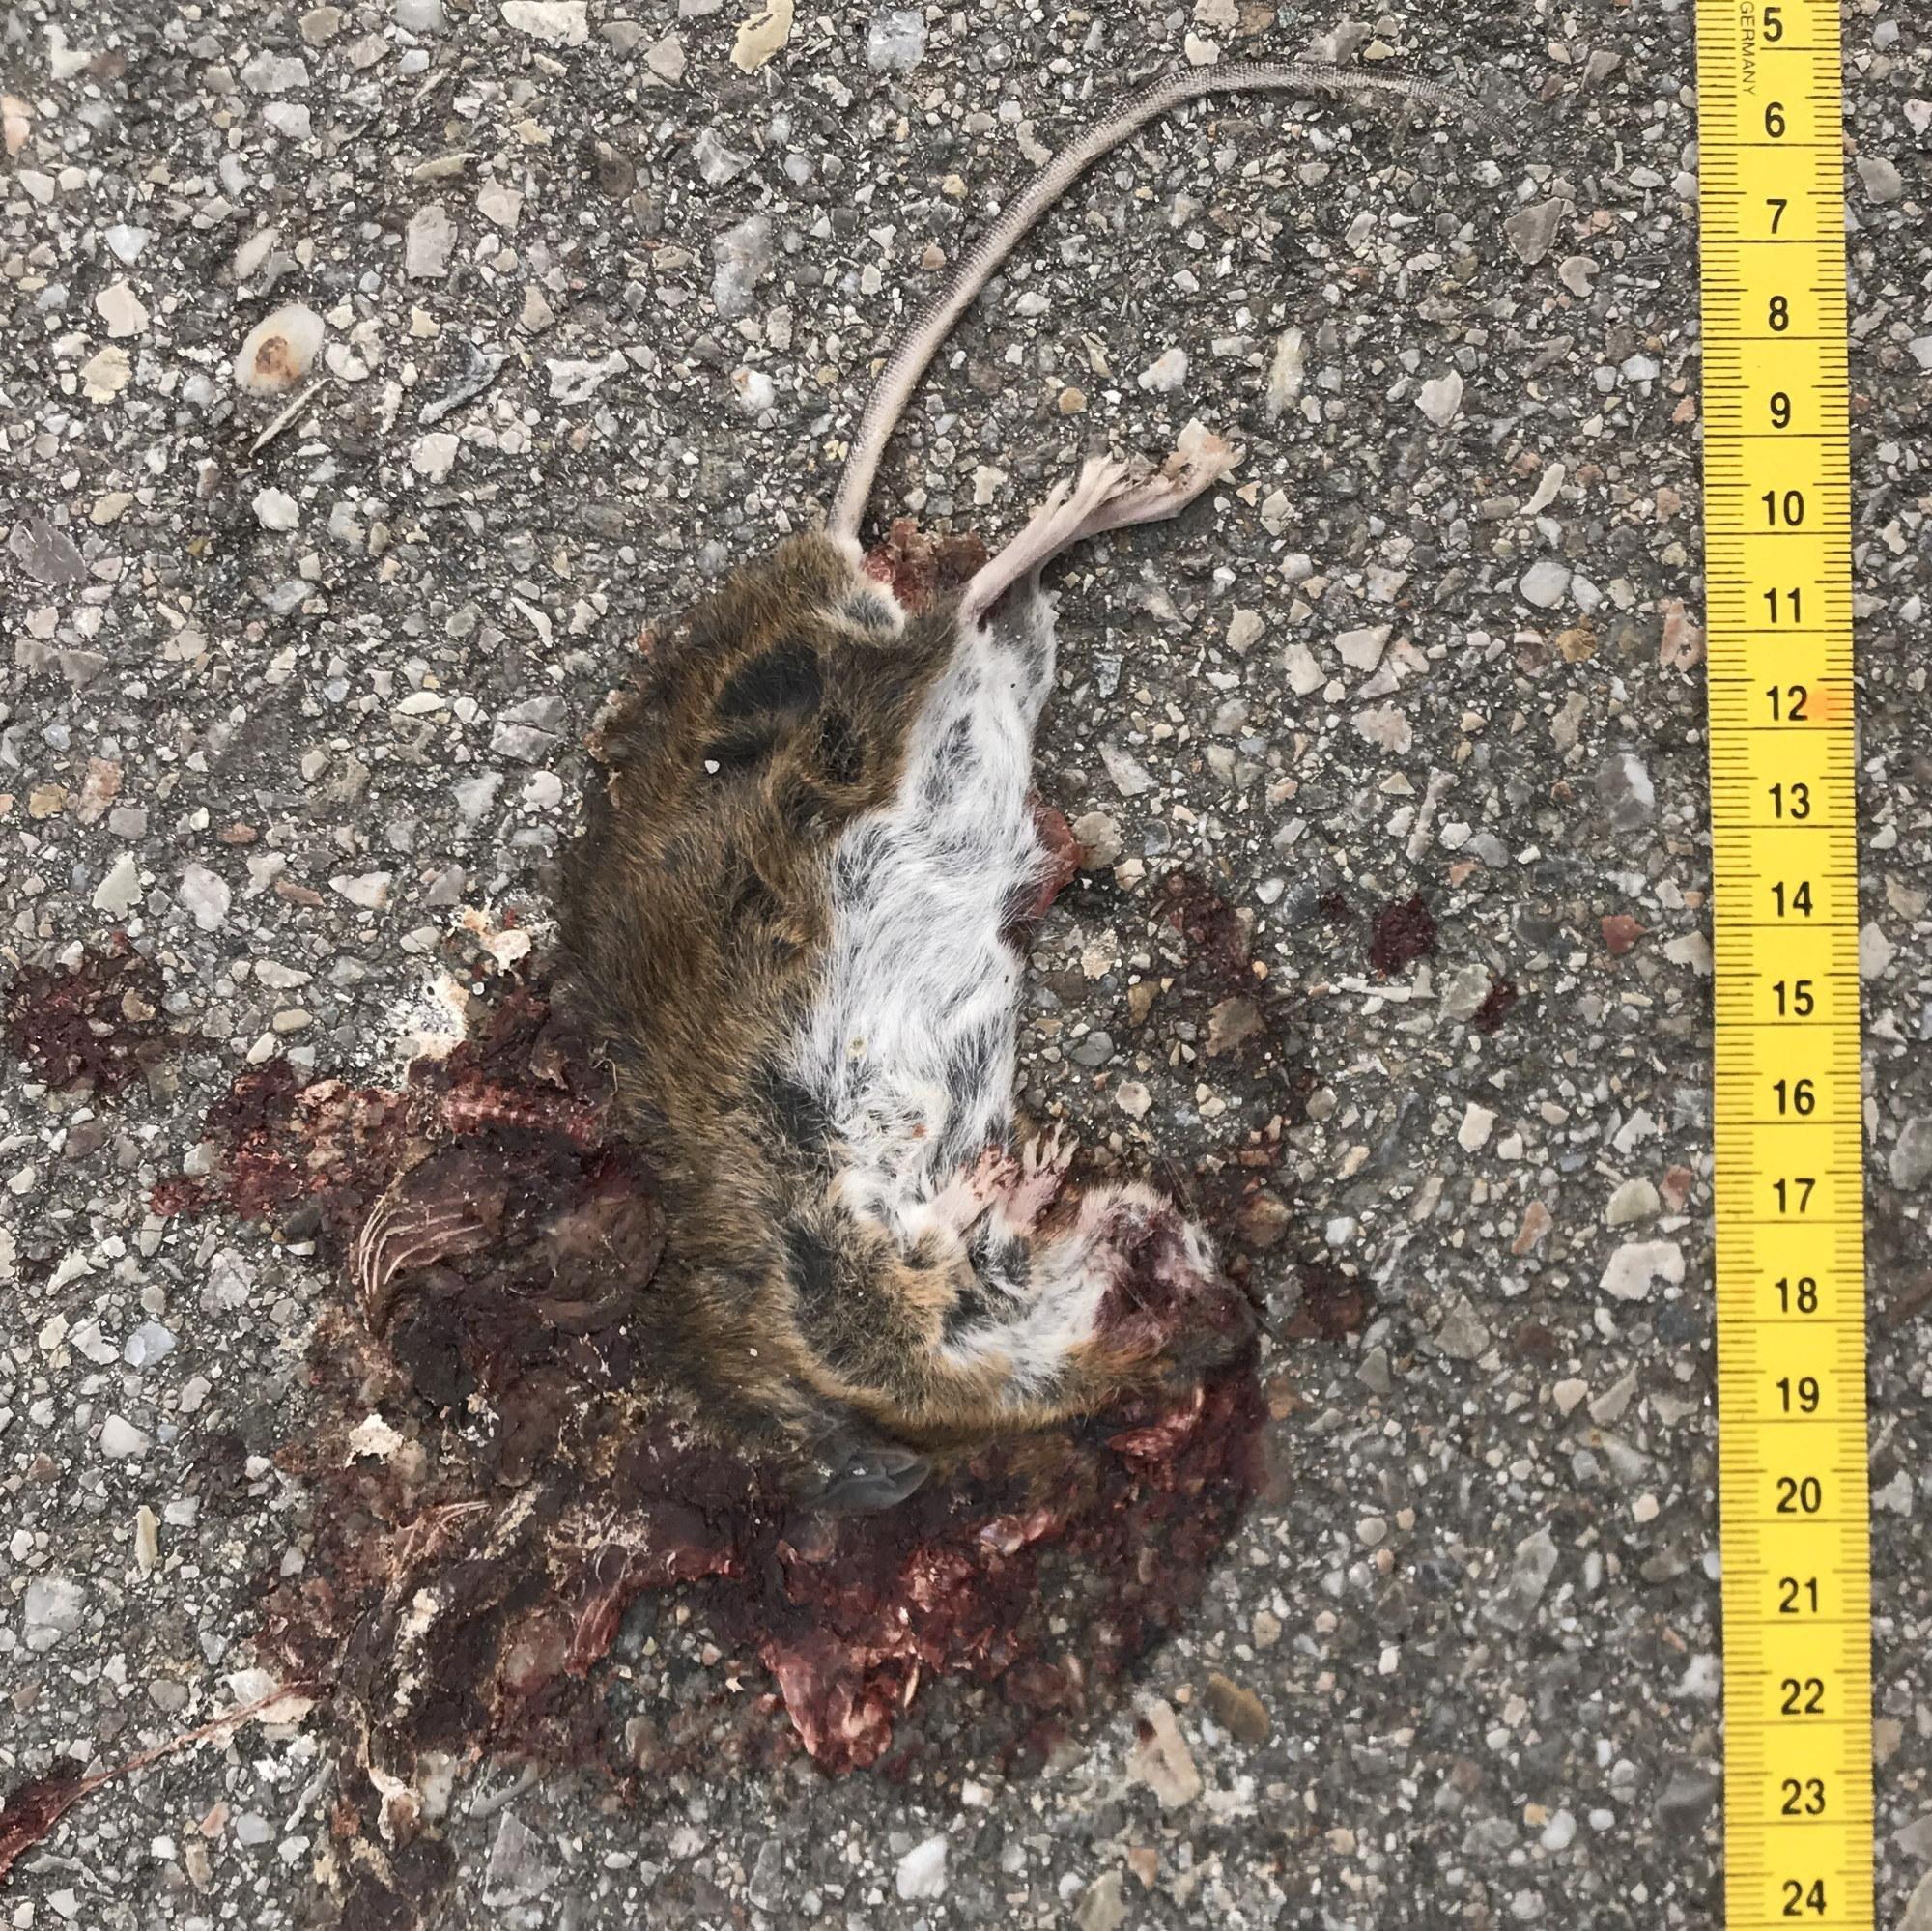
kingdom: Animalia
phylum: Chordata
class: Mammalia
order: Rodentia
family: Muridae
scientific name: Muridae
